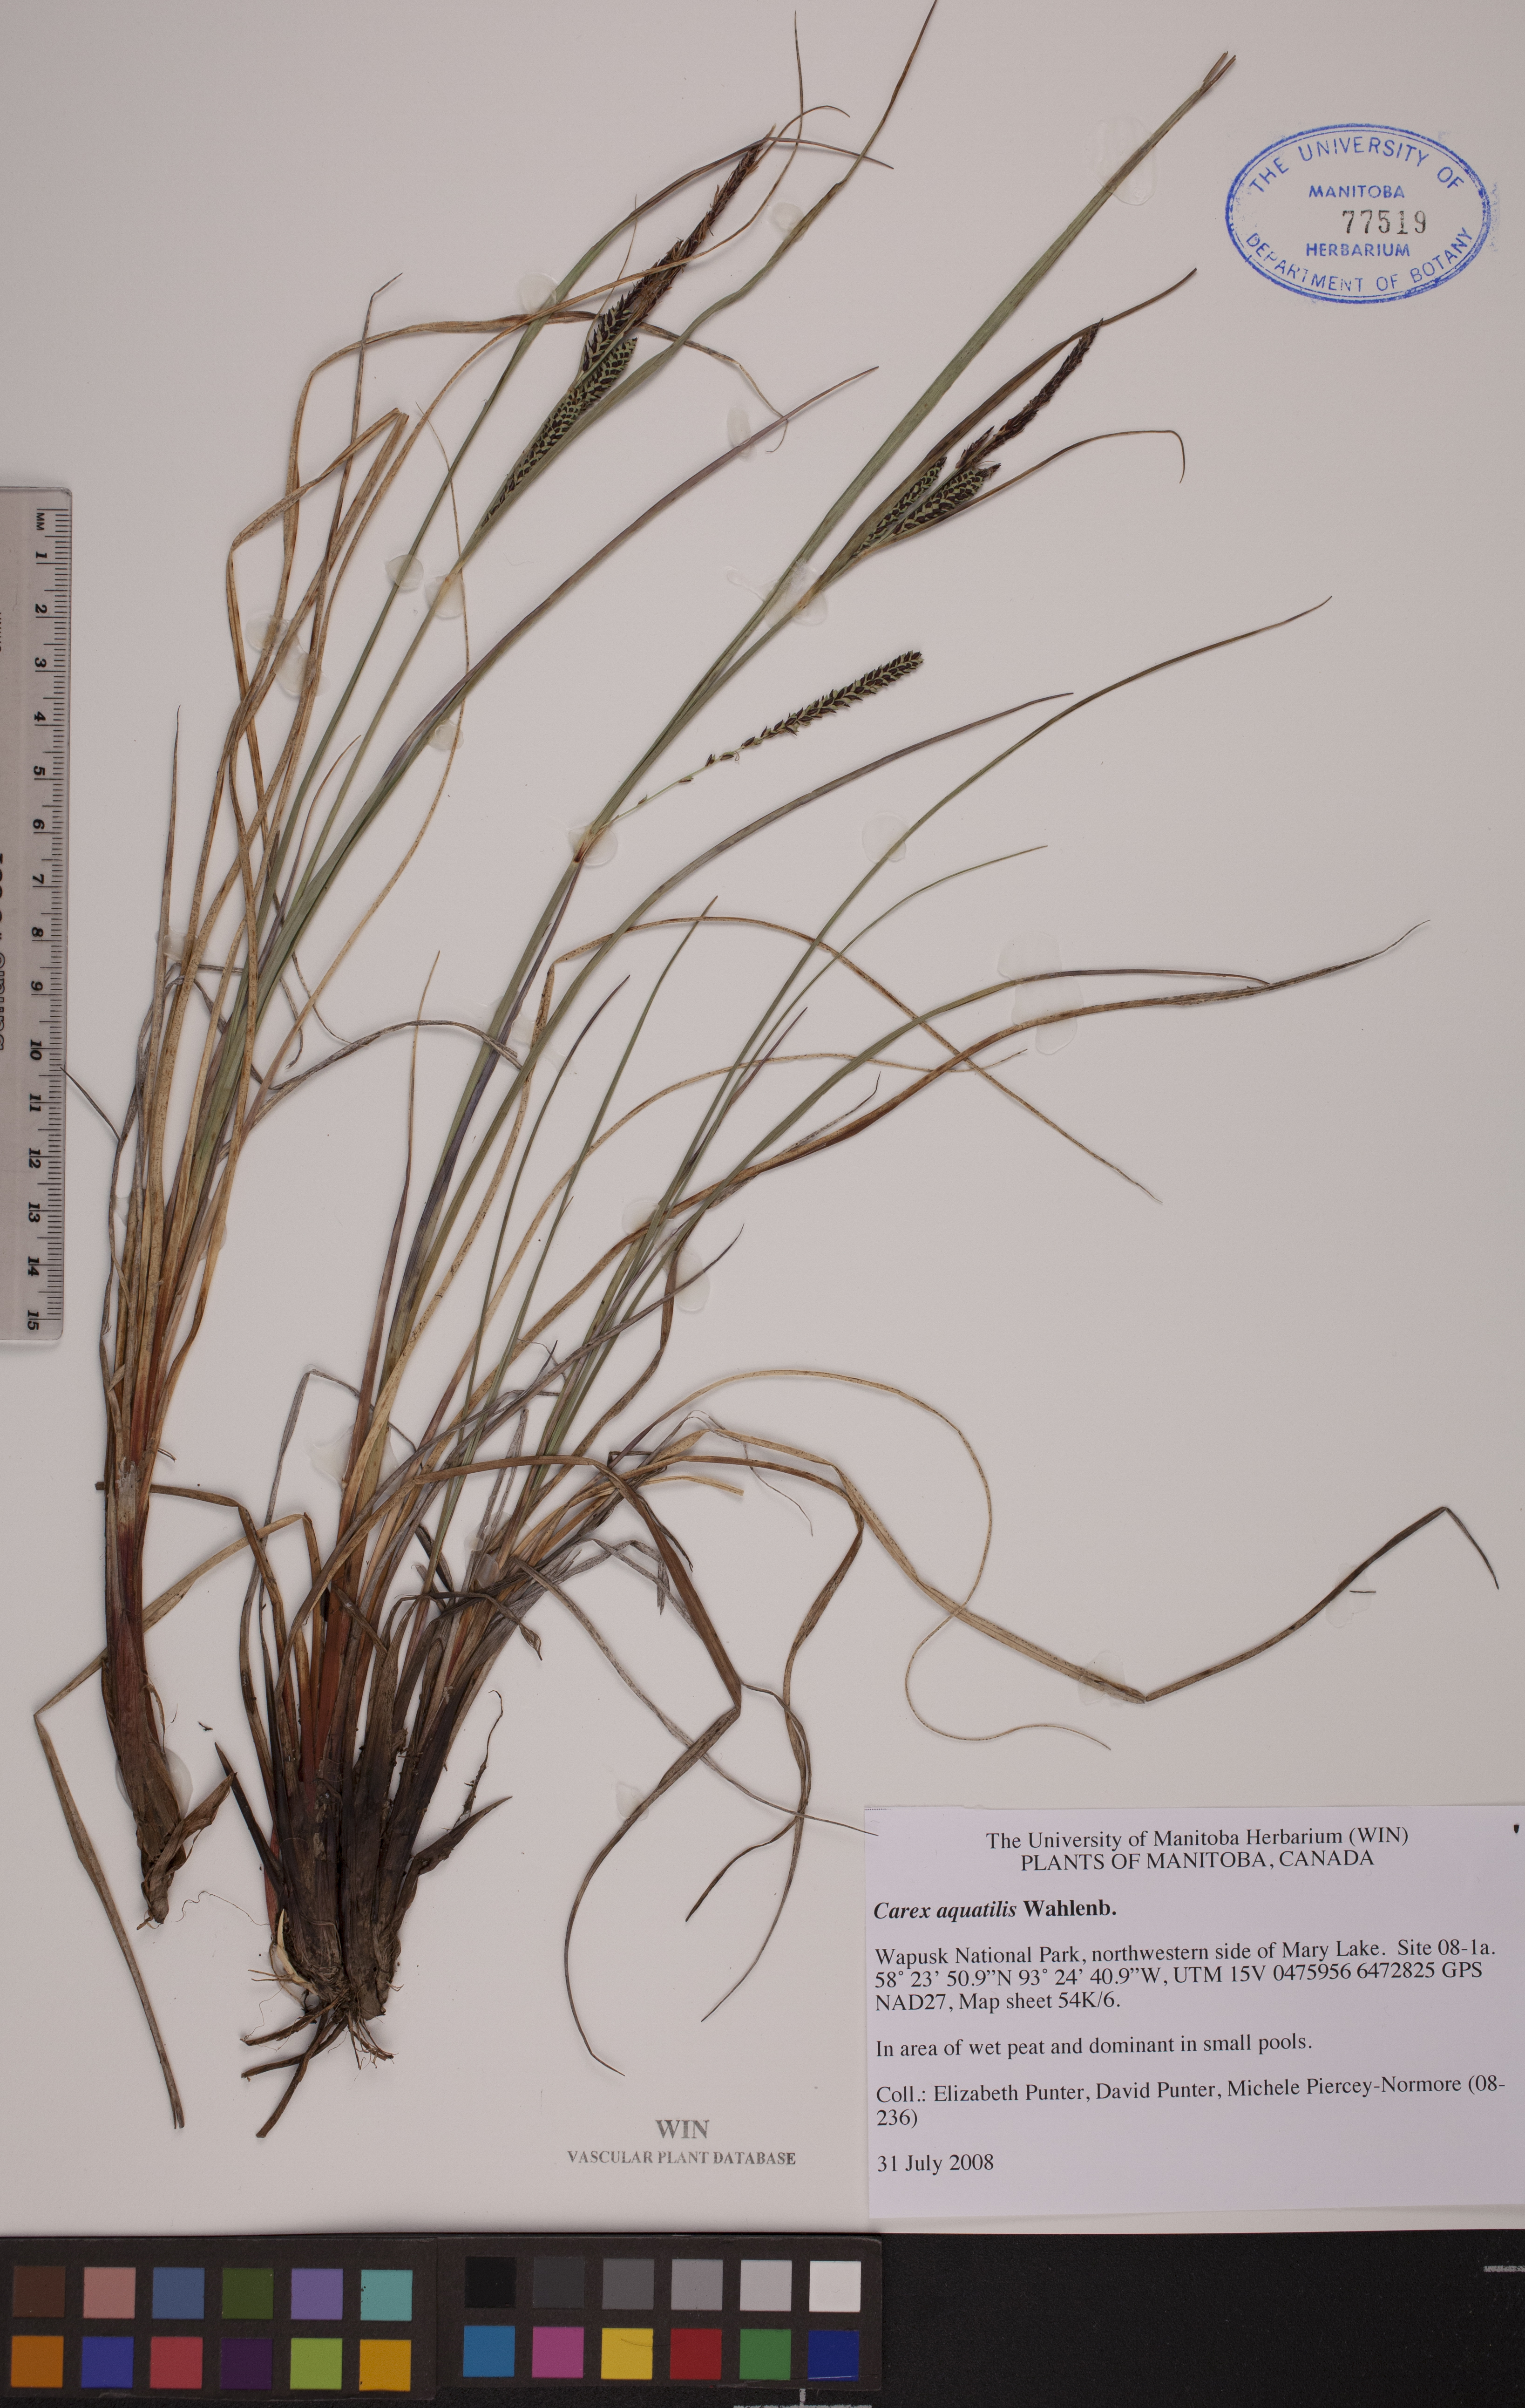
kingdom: Plantae
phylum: Tracheophyta
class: Liliopsida
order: Poales
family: Cyperaceae
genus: Carex
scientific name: Carex aquatilis
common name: Water sedge
